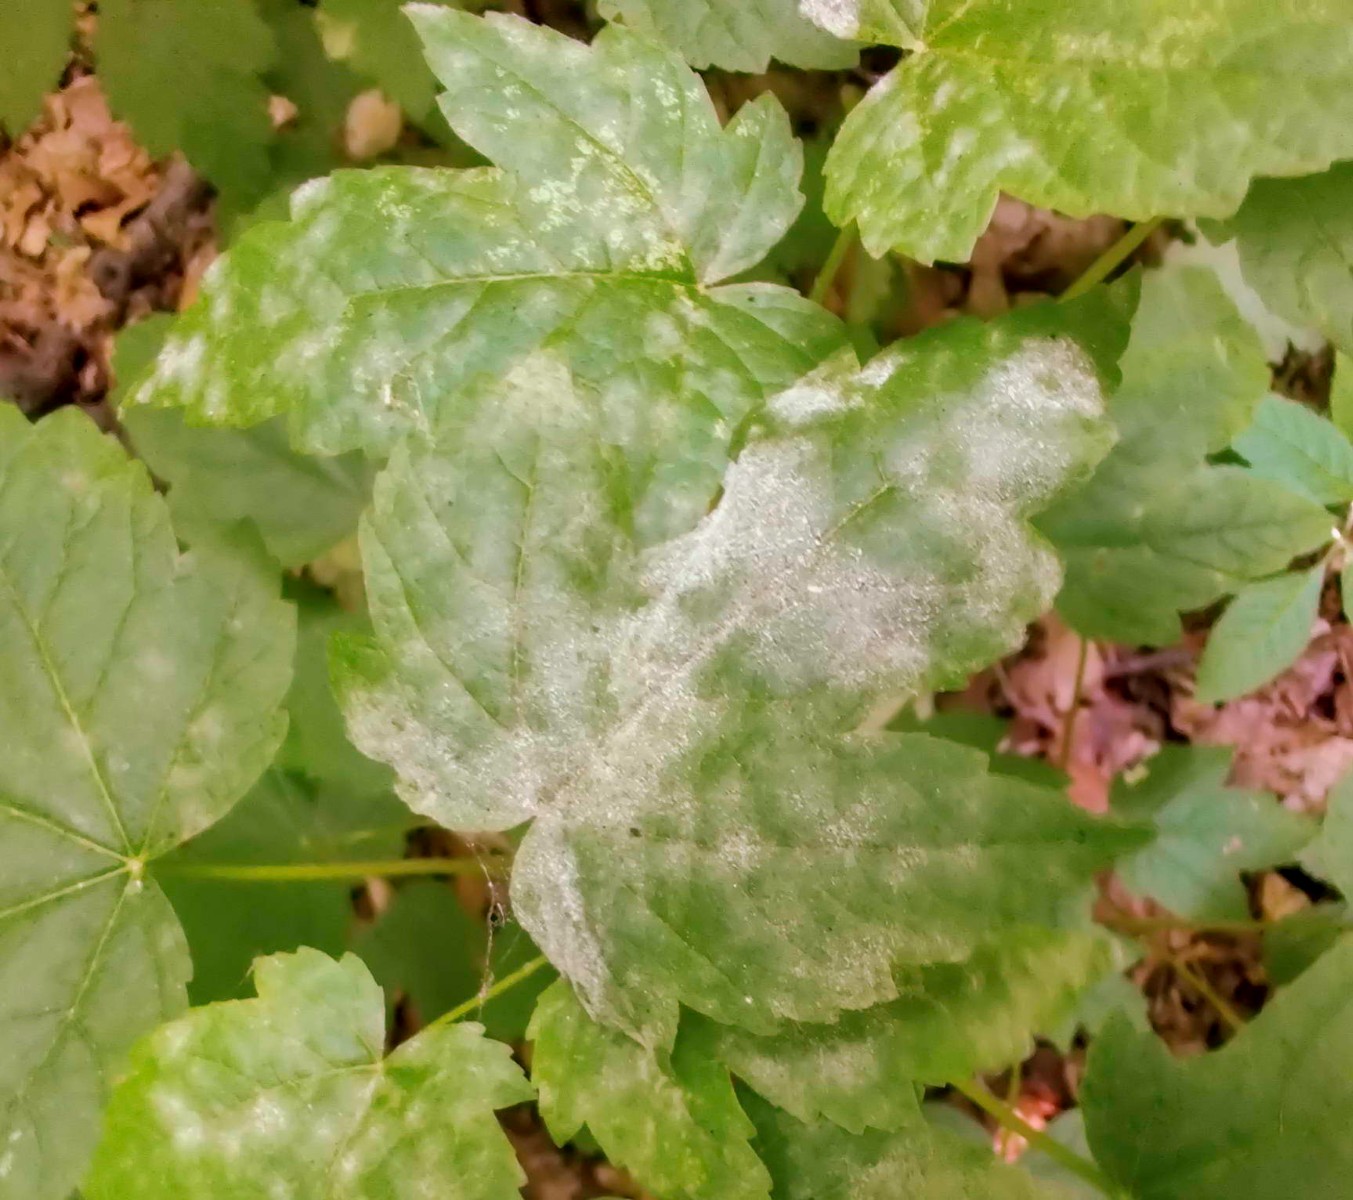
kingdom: Fungi
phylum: Ascomycota
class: Leotiomycetes
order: Helotiales
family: Erysiphaceae
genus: Sawadaea
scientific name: Sawadaea bicornis
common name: Maple mildew
